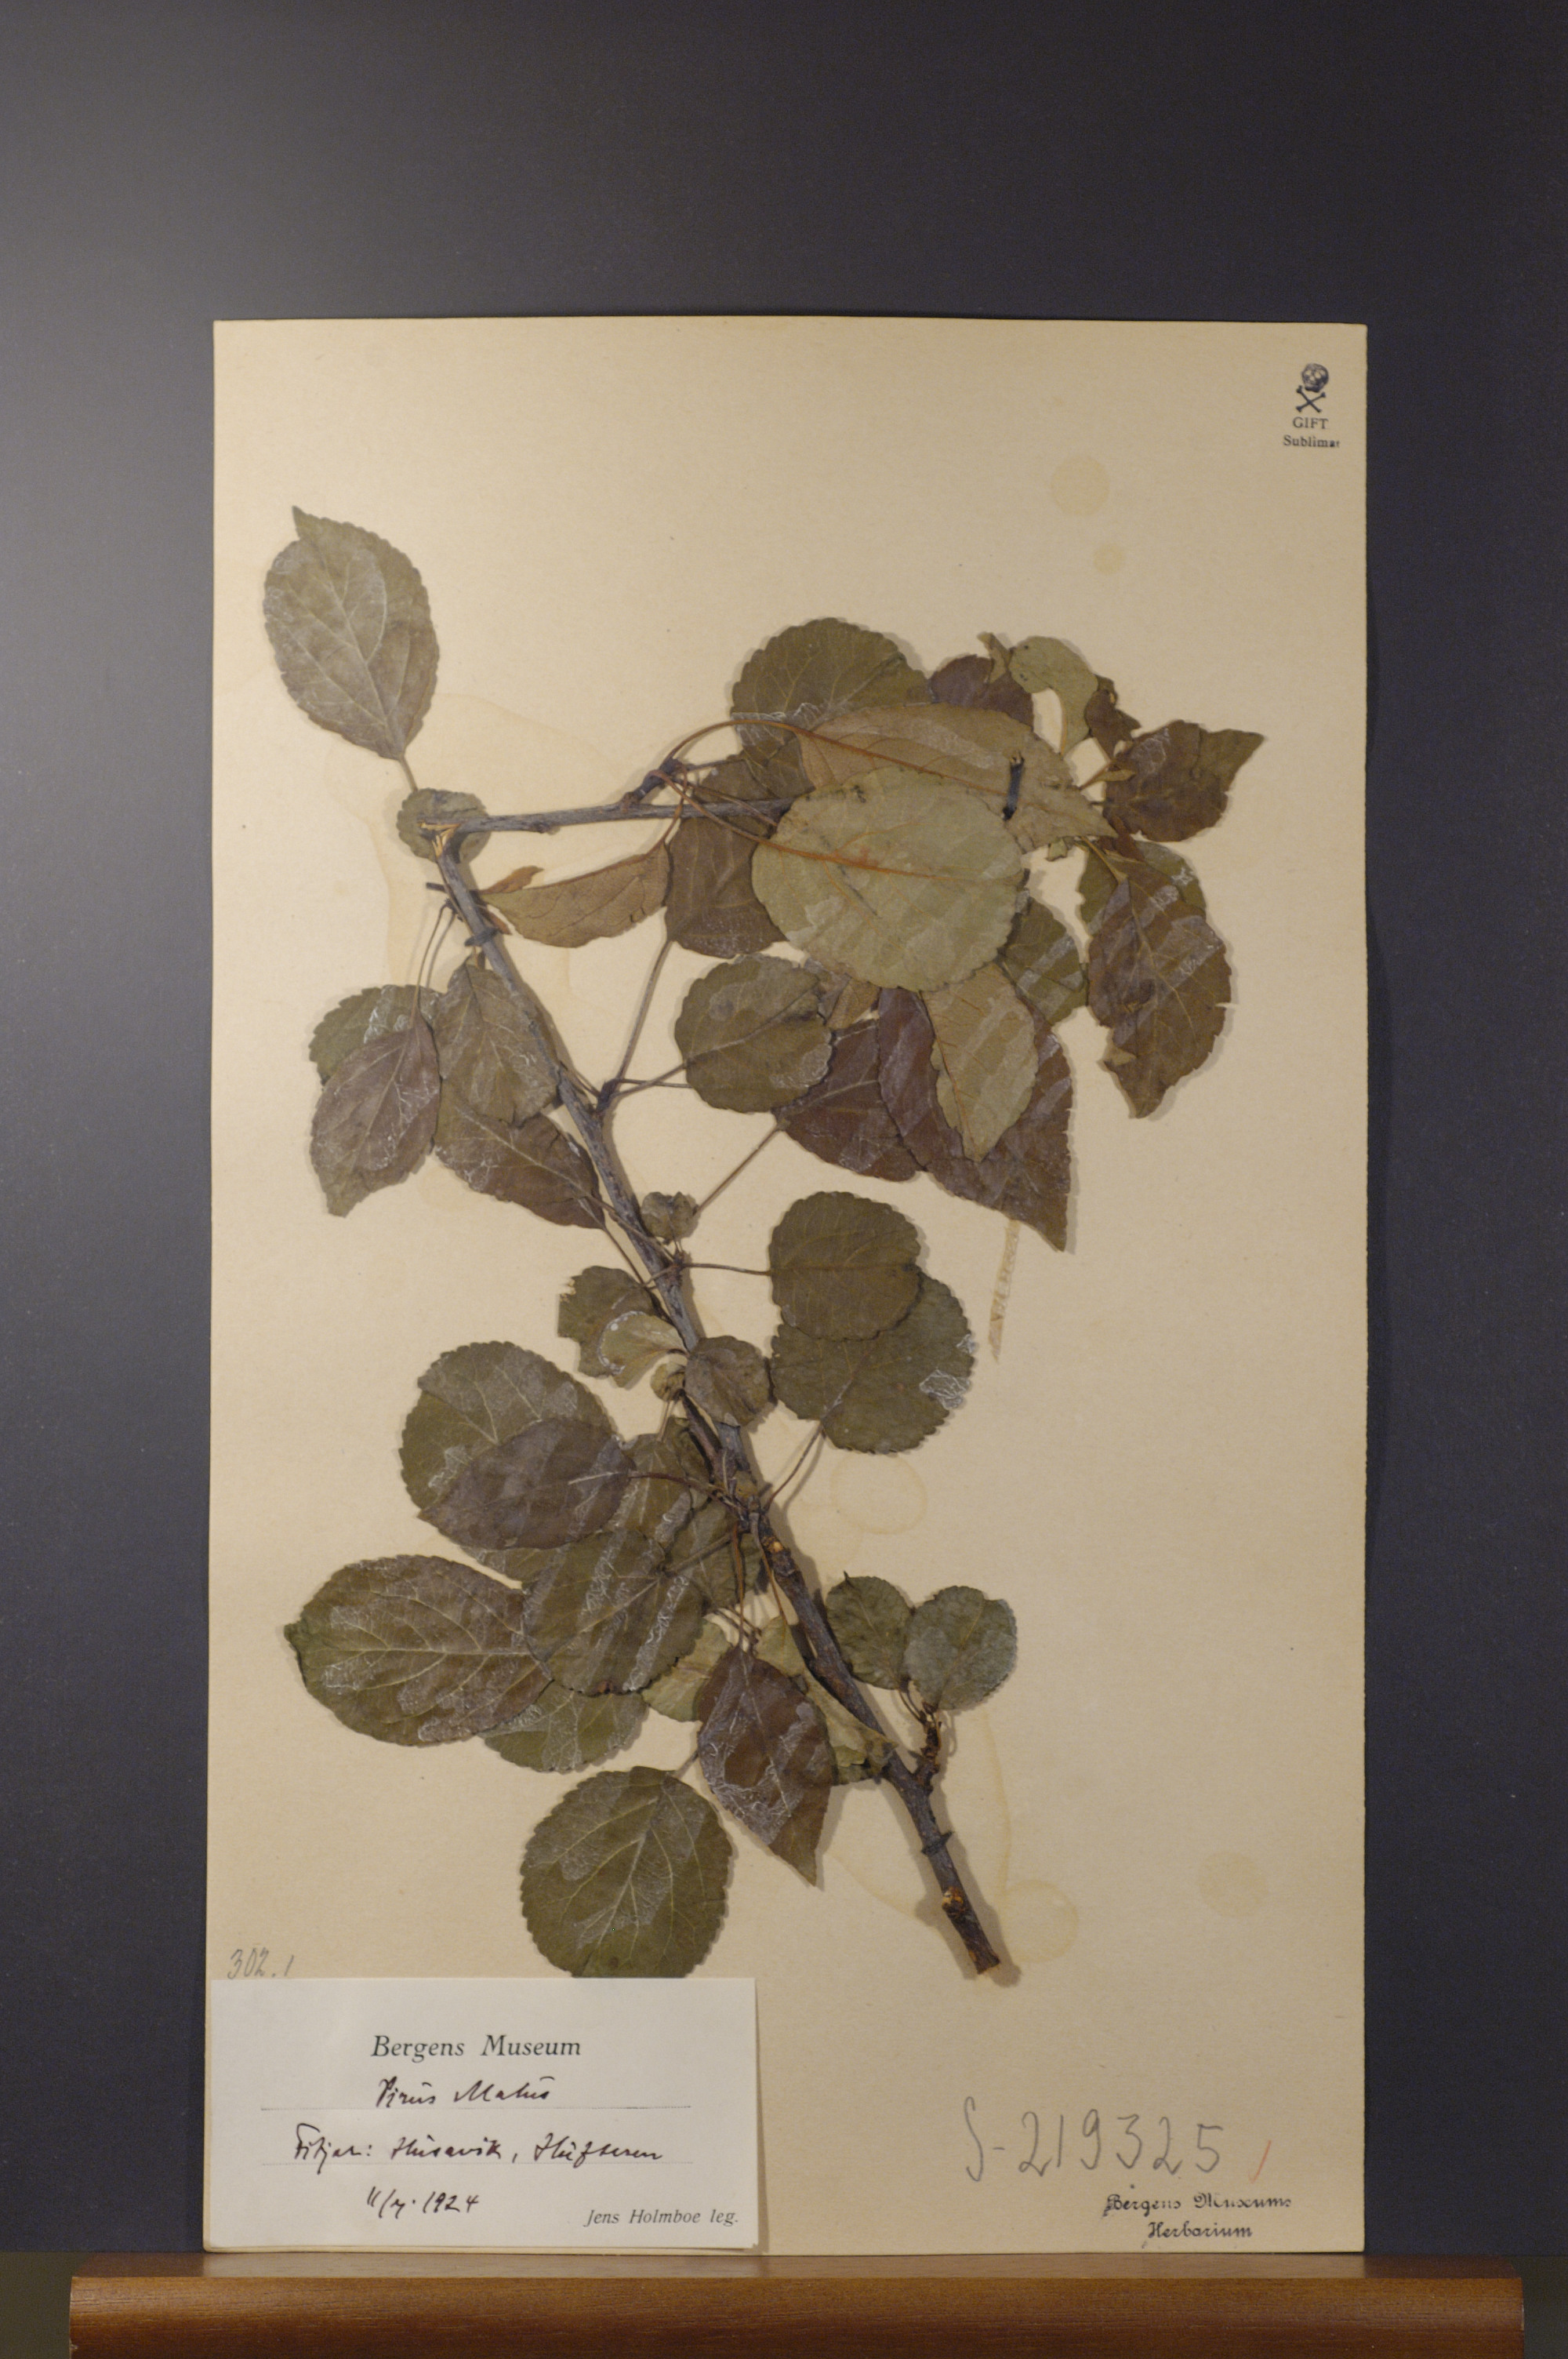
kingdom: Plantae
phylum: Tracheophyta
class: Magnoliopsida
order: Rosales
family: Rosaceae
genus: Malus
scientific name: Malus domestica
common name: Apple
